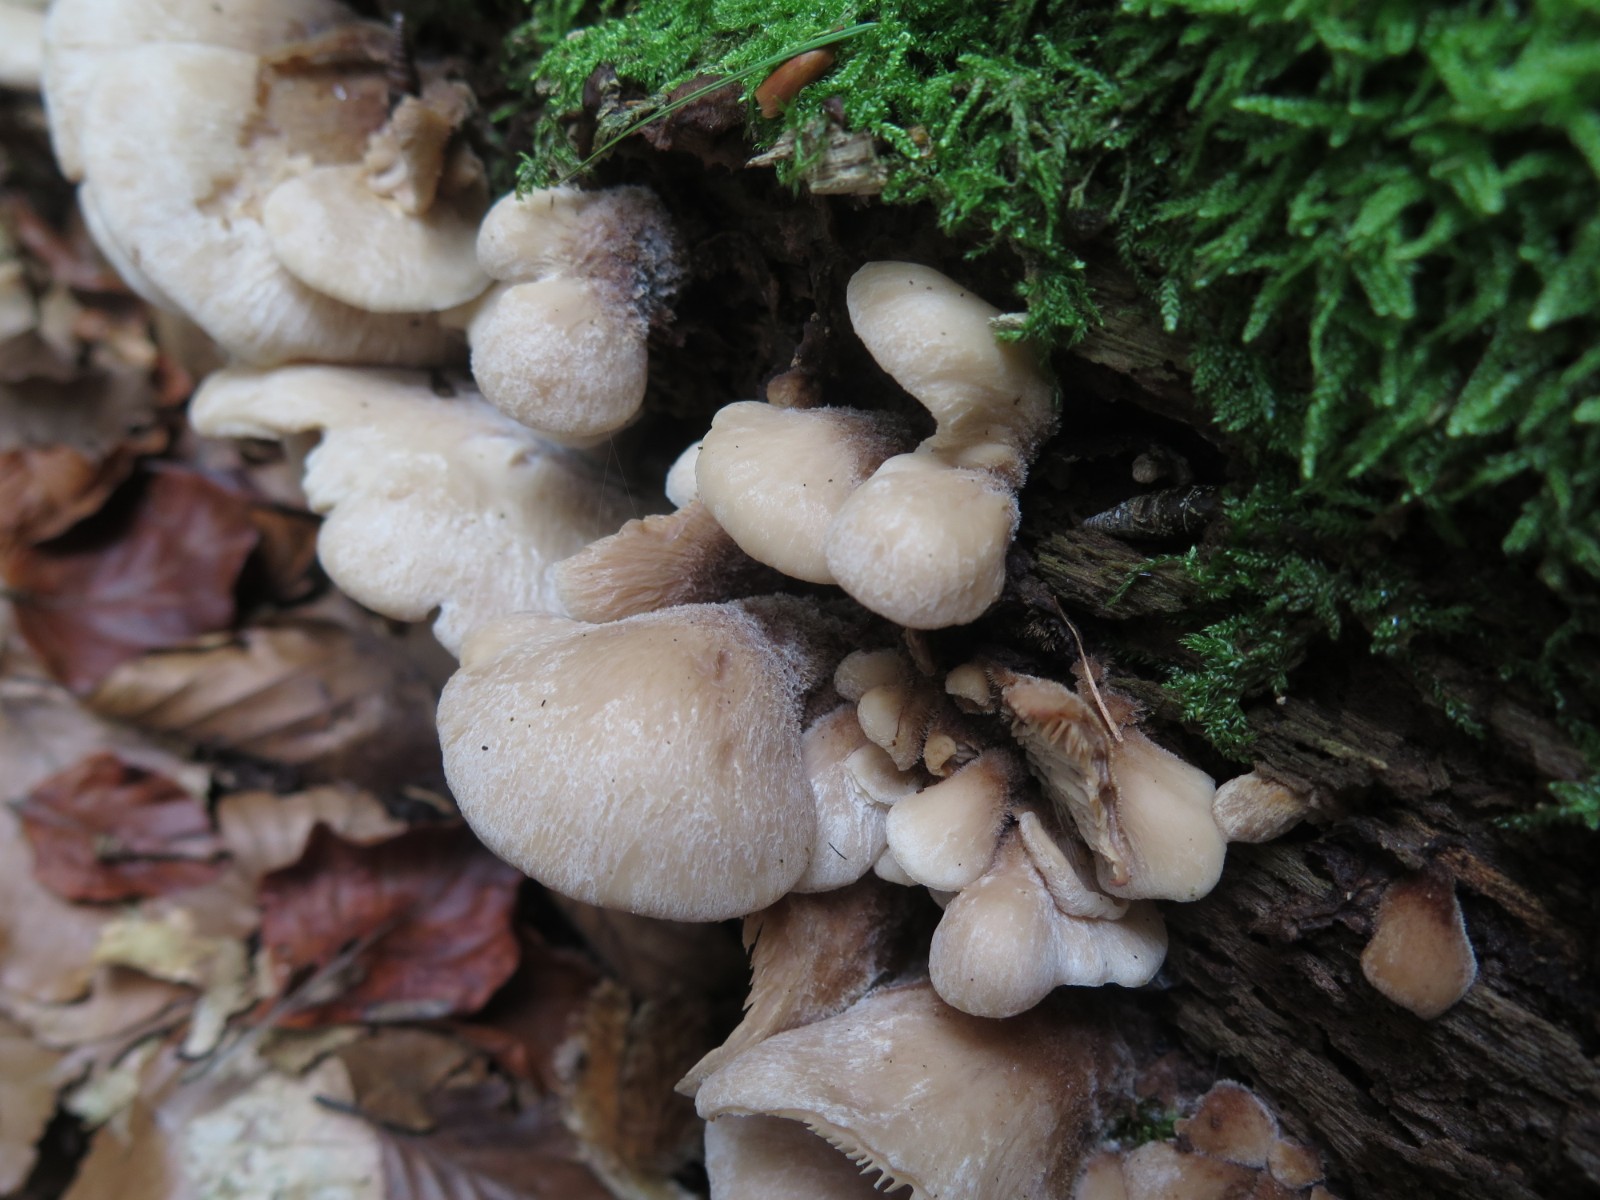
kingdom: Fungi
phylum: Basidiomycota
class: Agaricomycetes
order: Russulales
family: Auriscalpiaceae
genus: Lentinellus
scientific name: Lentinellus ursinus
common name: børstehåret savbladhat
